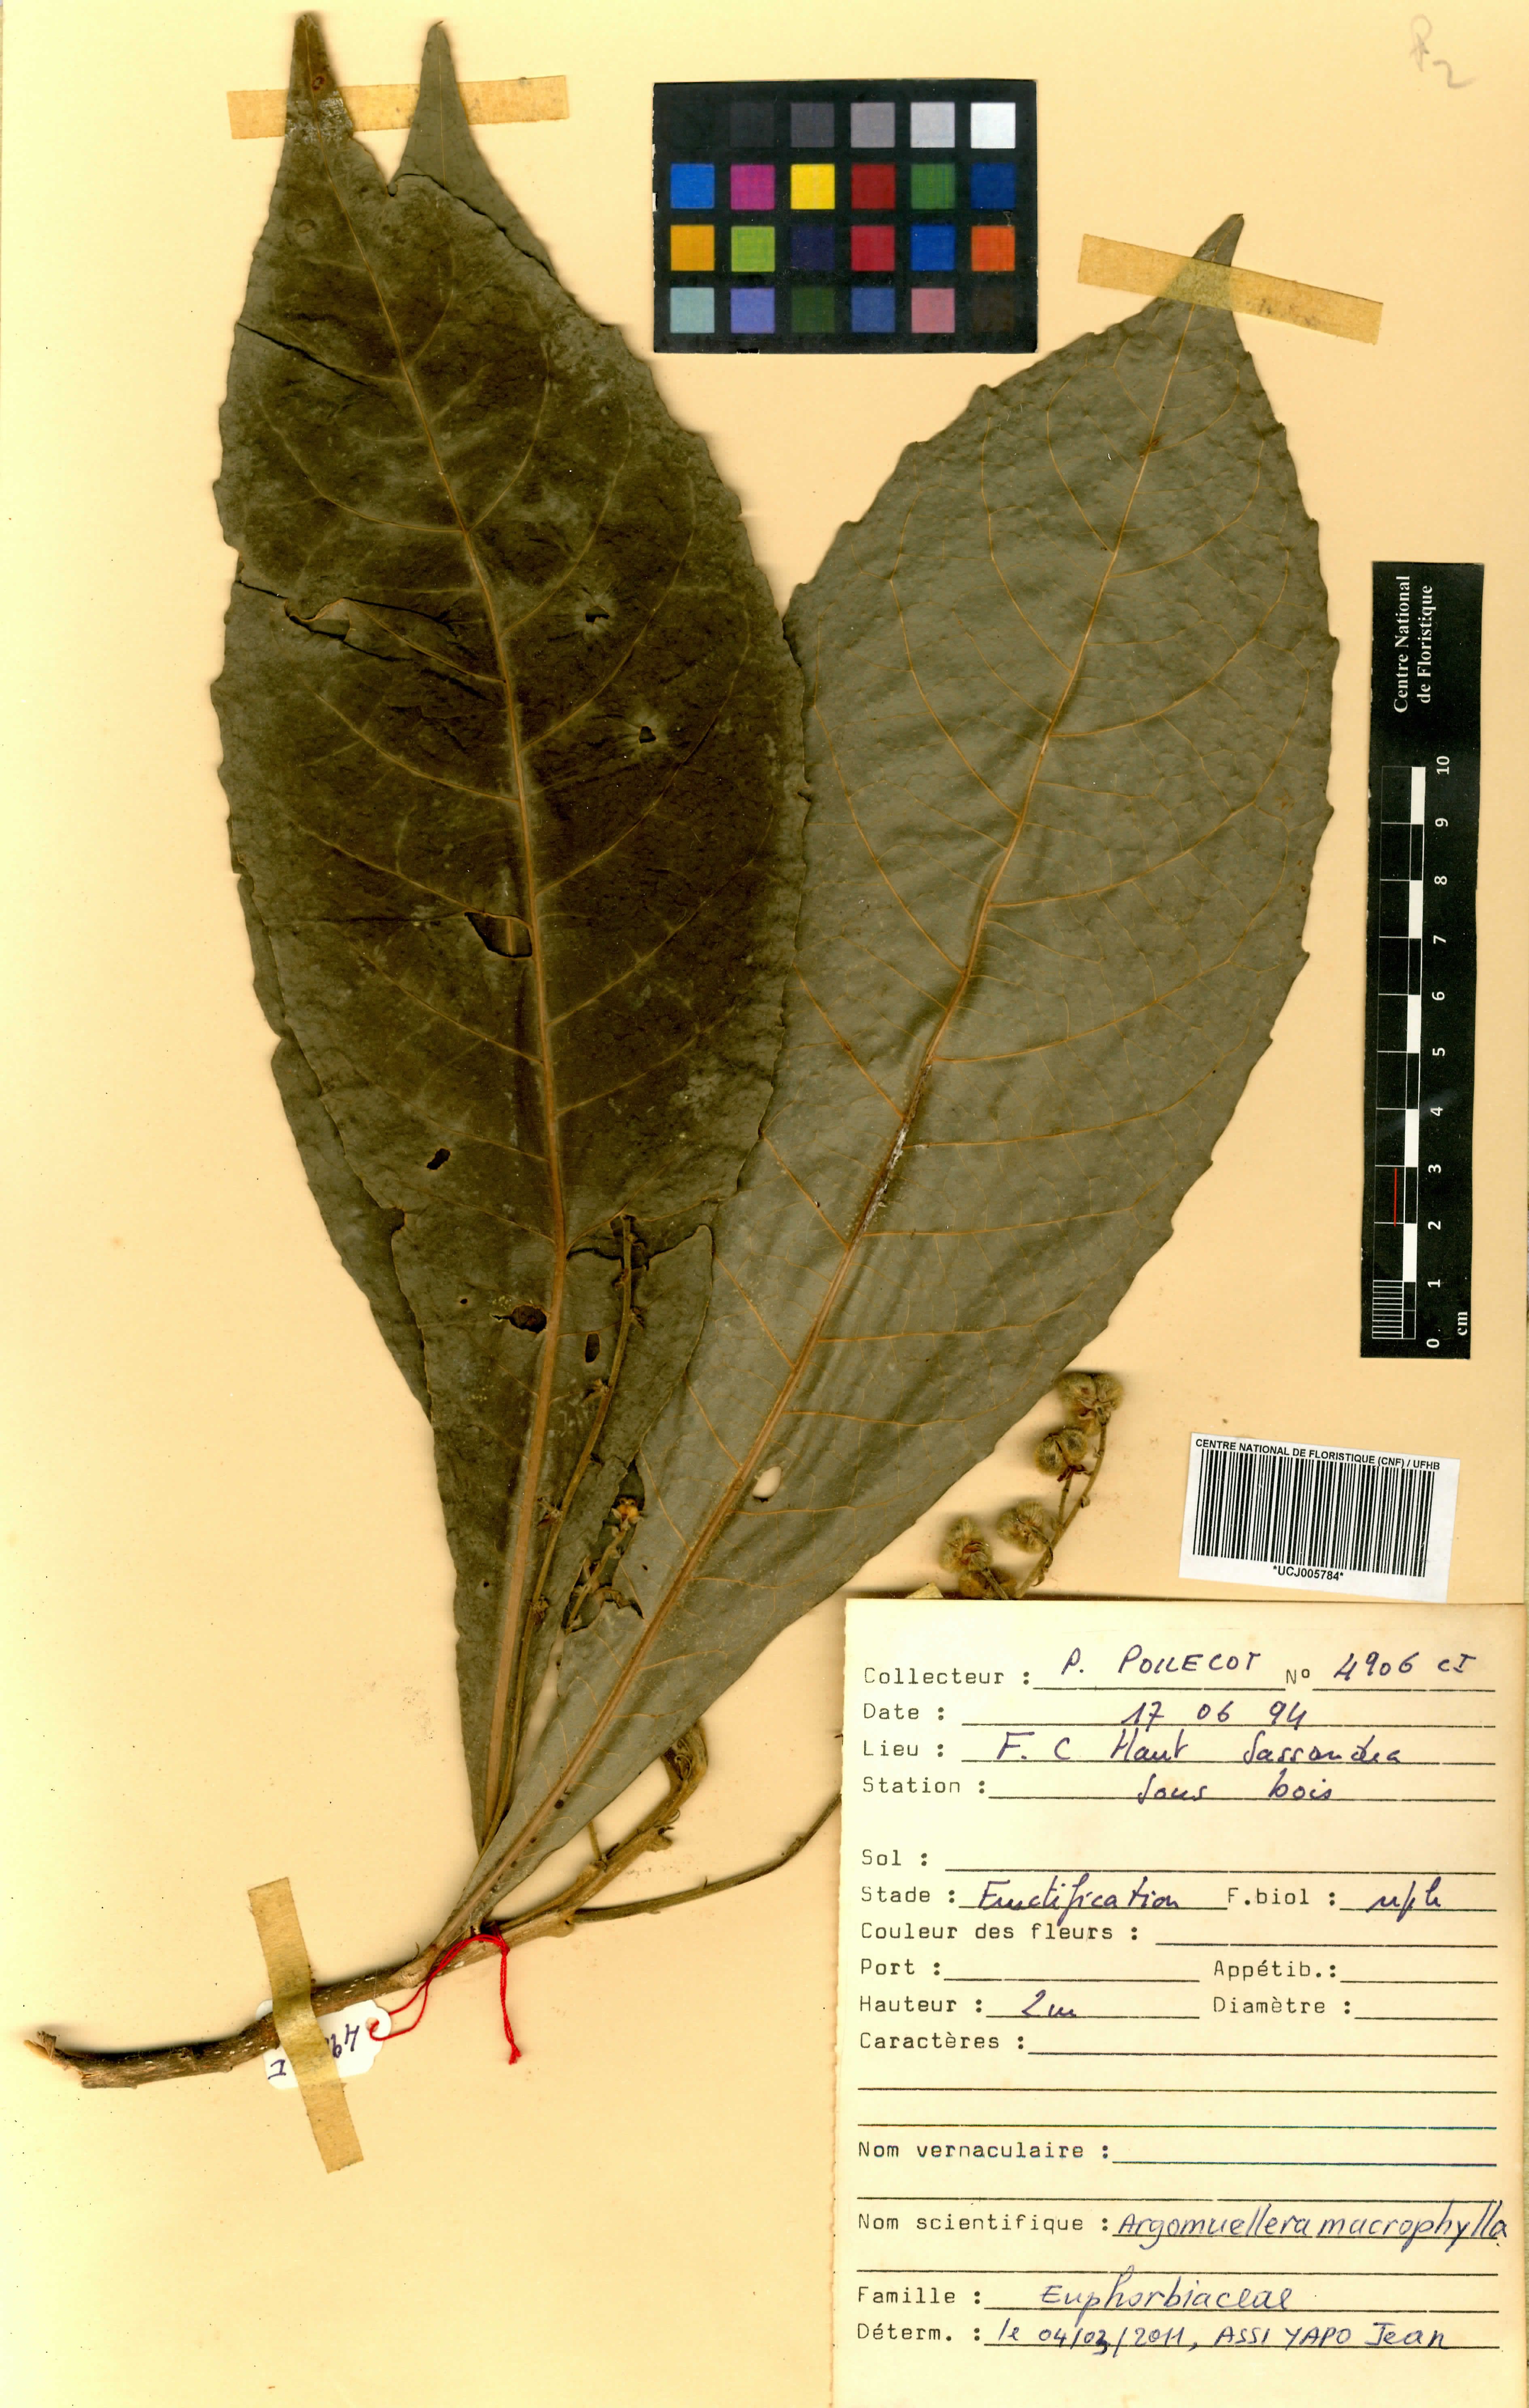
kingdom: Plantae
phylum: Tracheophyta
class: Magnoliopsida
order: Malpighiales
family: Euphorbiaceae
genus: Argomuellera
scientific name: Argomuellera macrophylla
